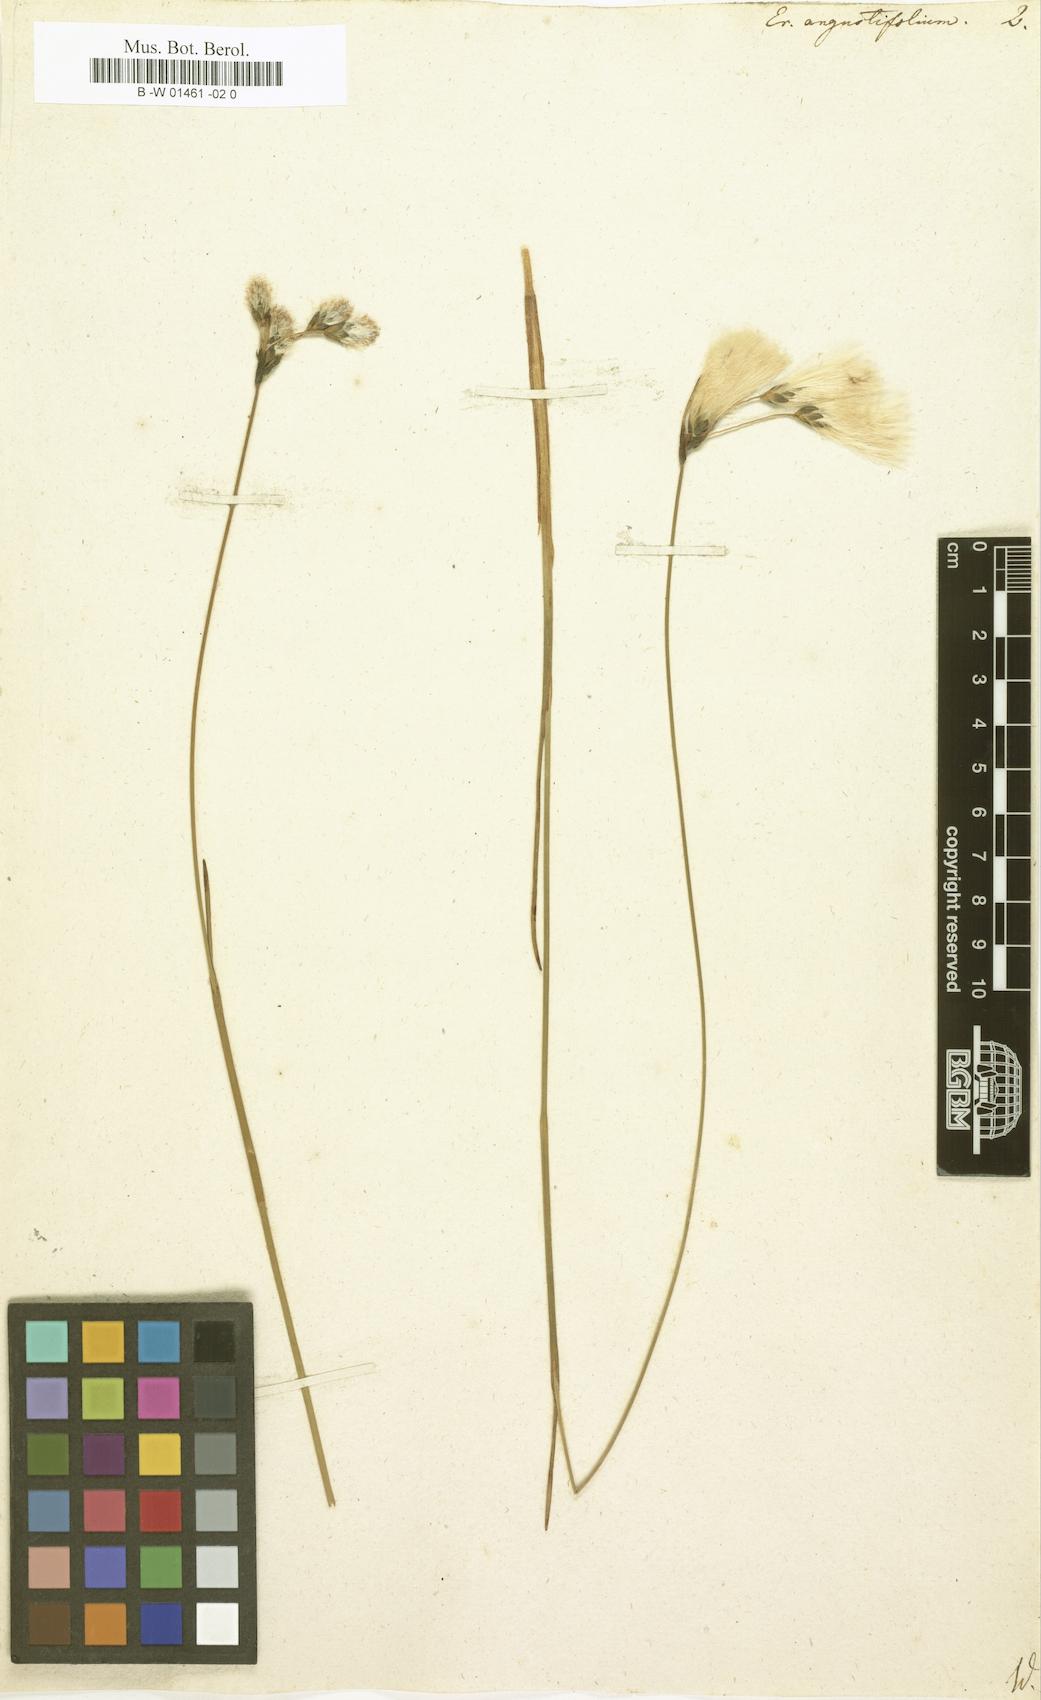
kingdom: Plantae
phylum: Tracheophyta
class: Liliopsida
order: Poales
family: Cyperaceae
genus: Eriophorum
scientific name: Eriophorum angustifolium
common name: Common cottongrass
